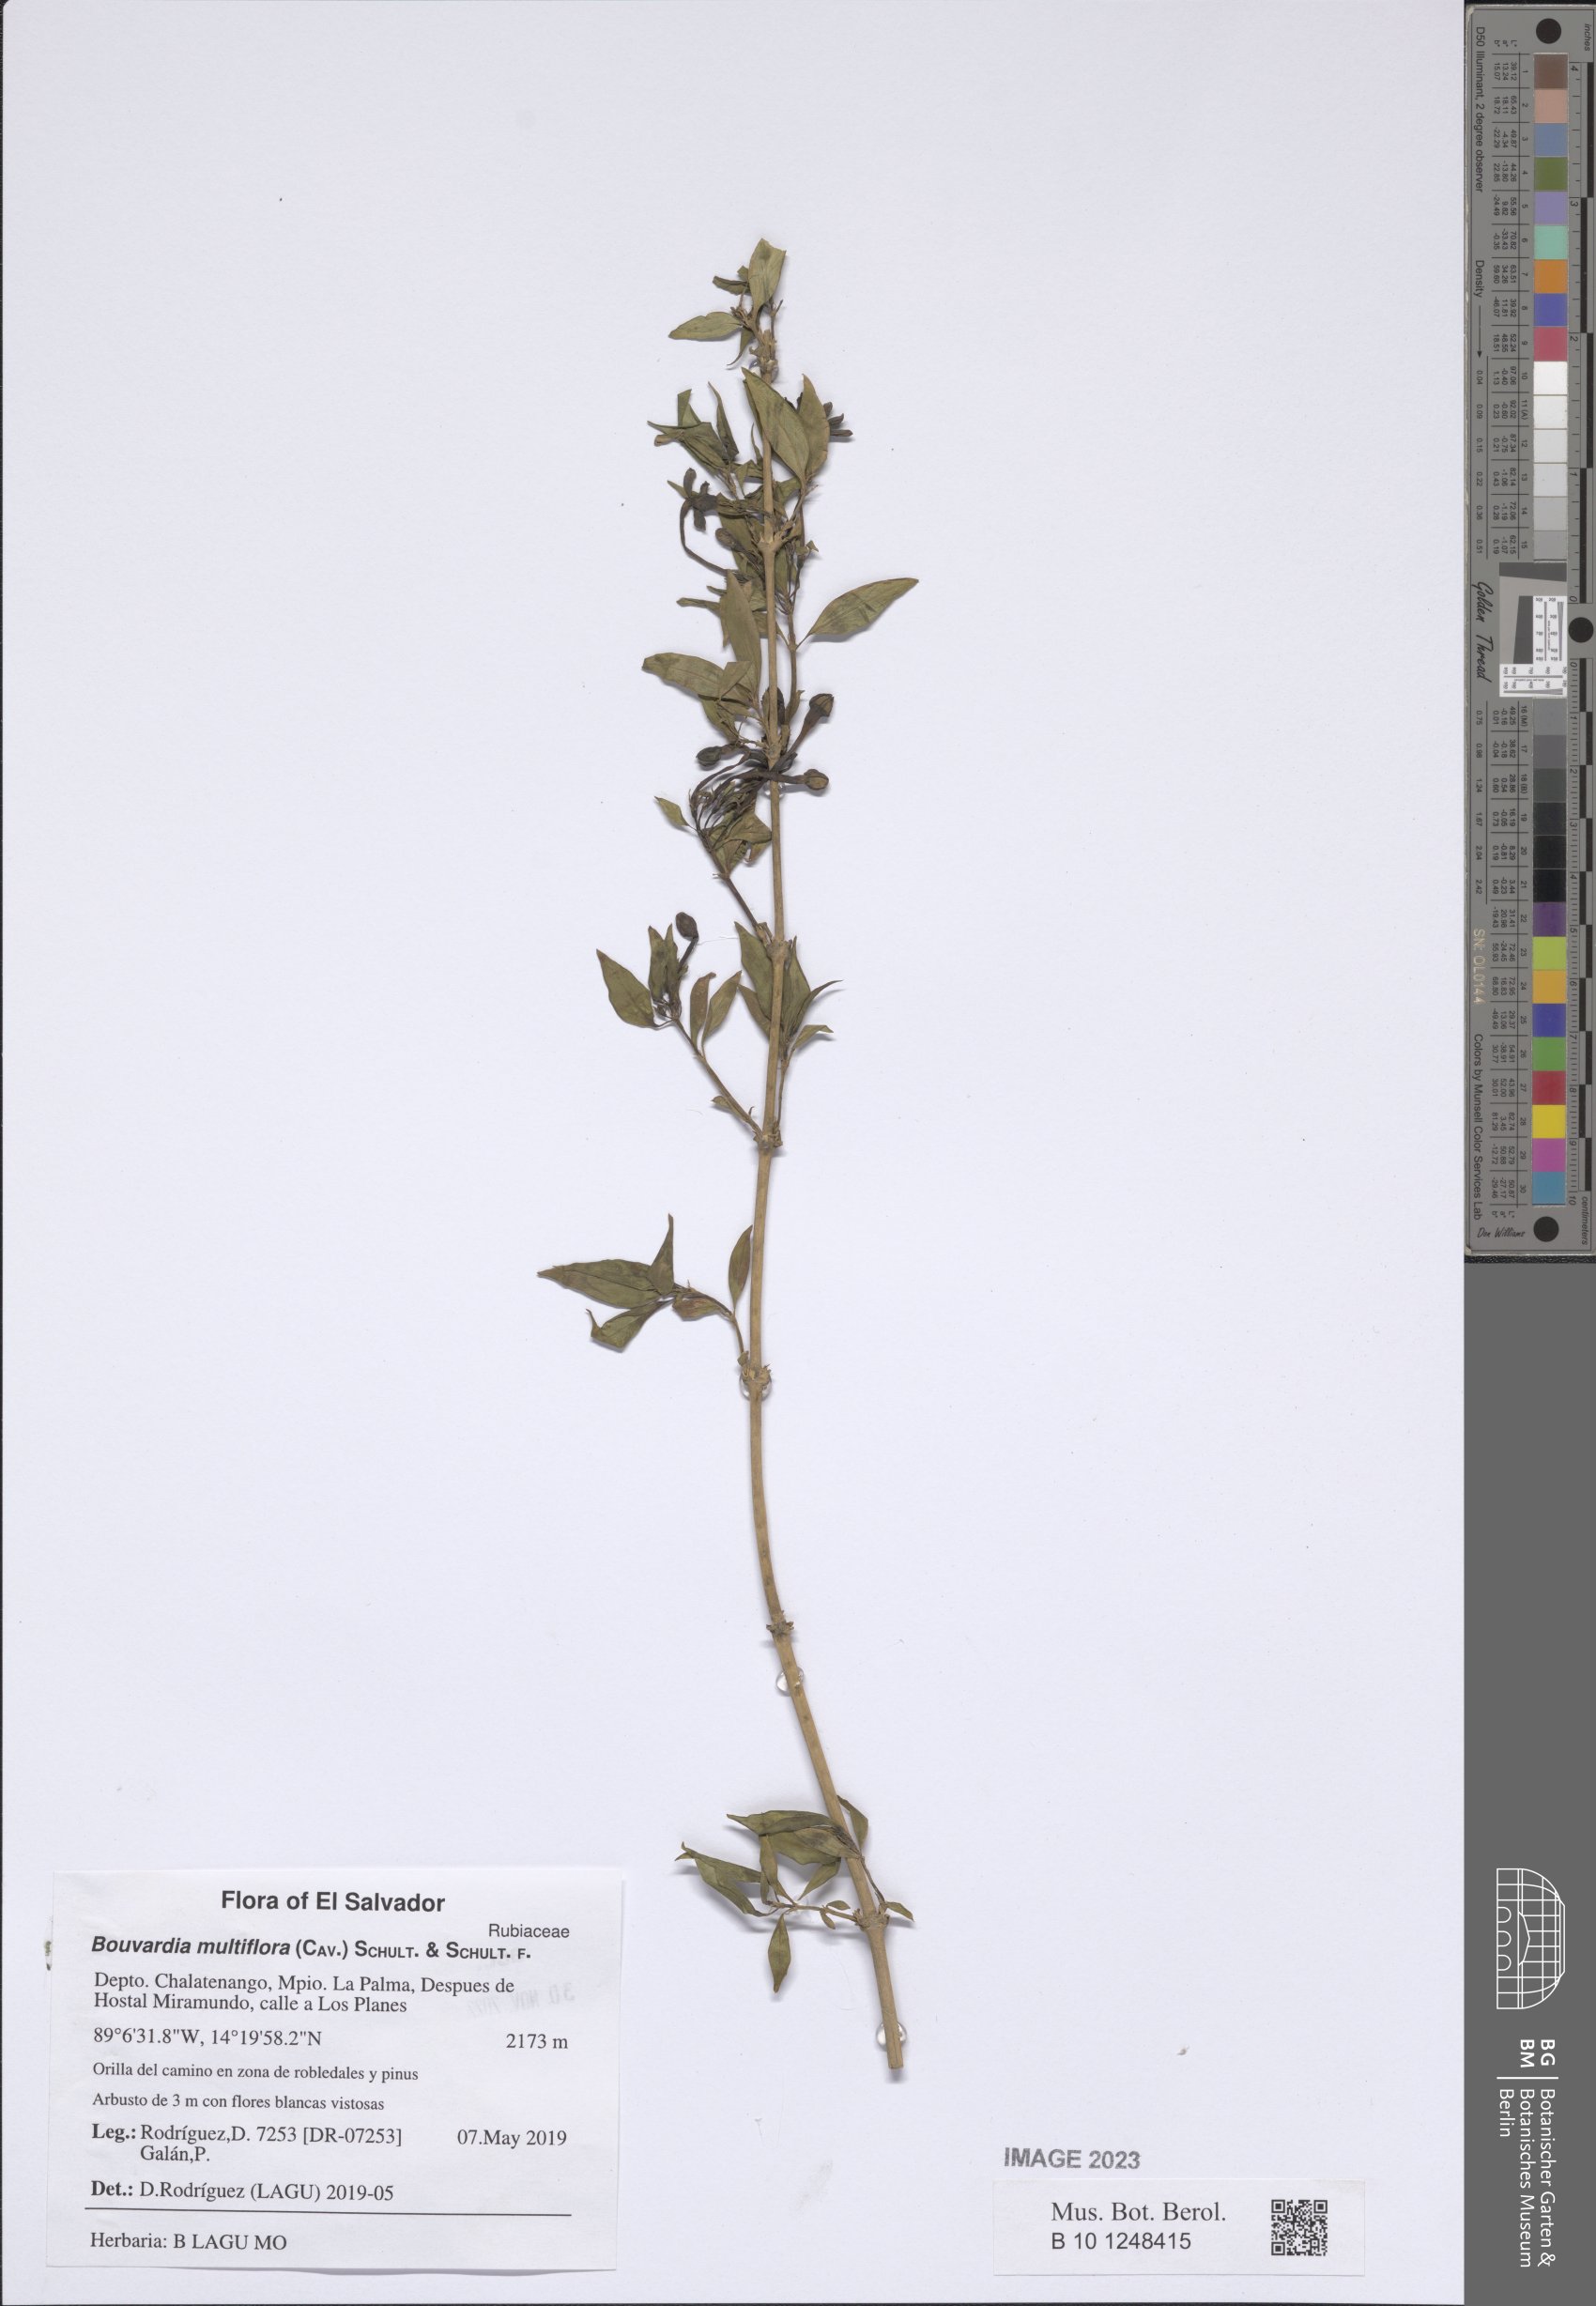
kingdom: Plantae
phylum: Tracheophyta
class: Magnoliopsida
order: Gentianales
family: Rubiaceae
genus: Bouvardia
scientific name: Bouvardia multiflora
